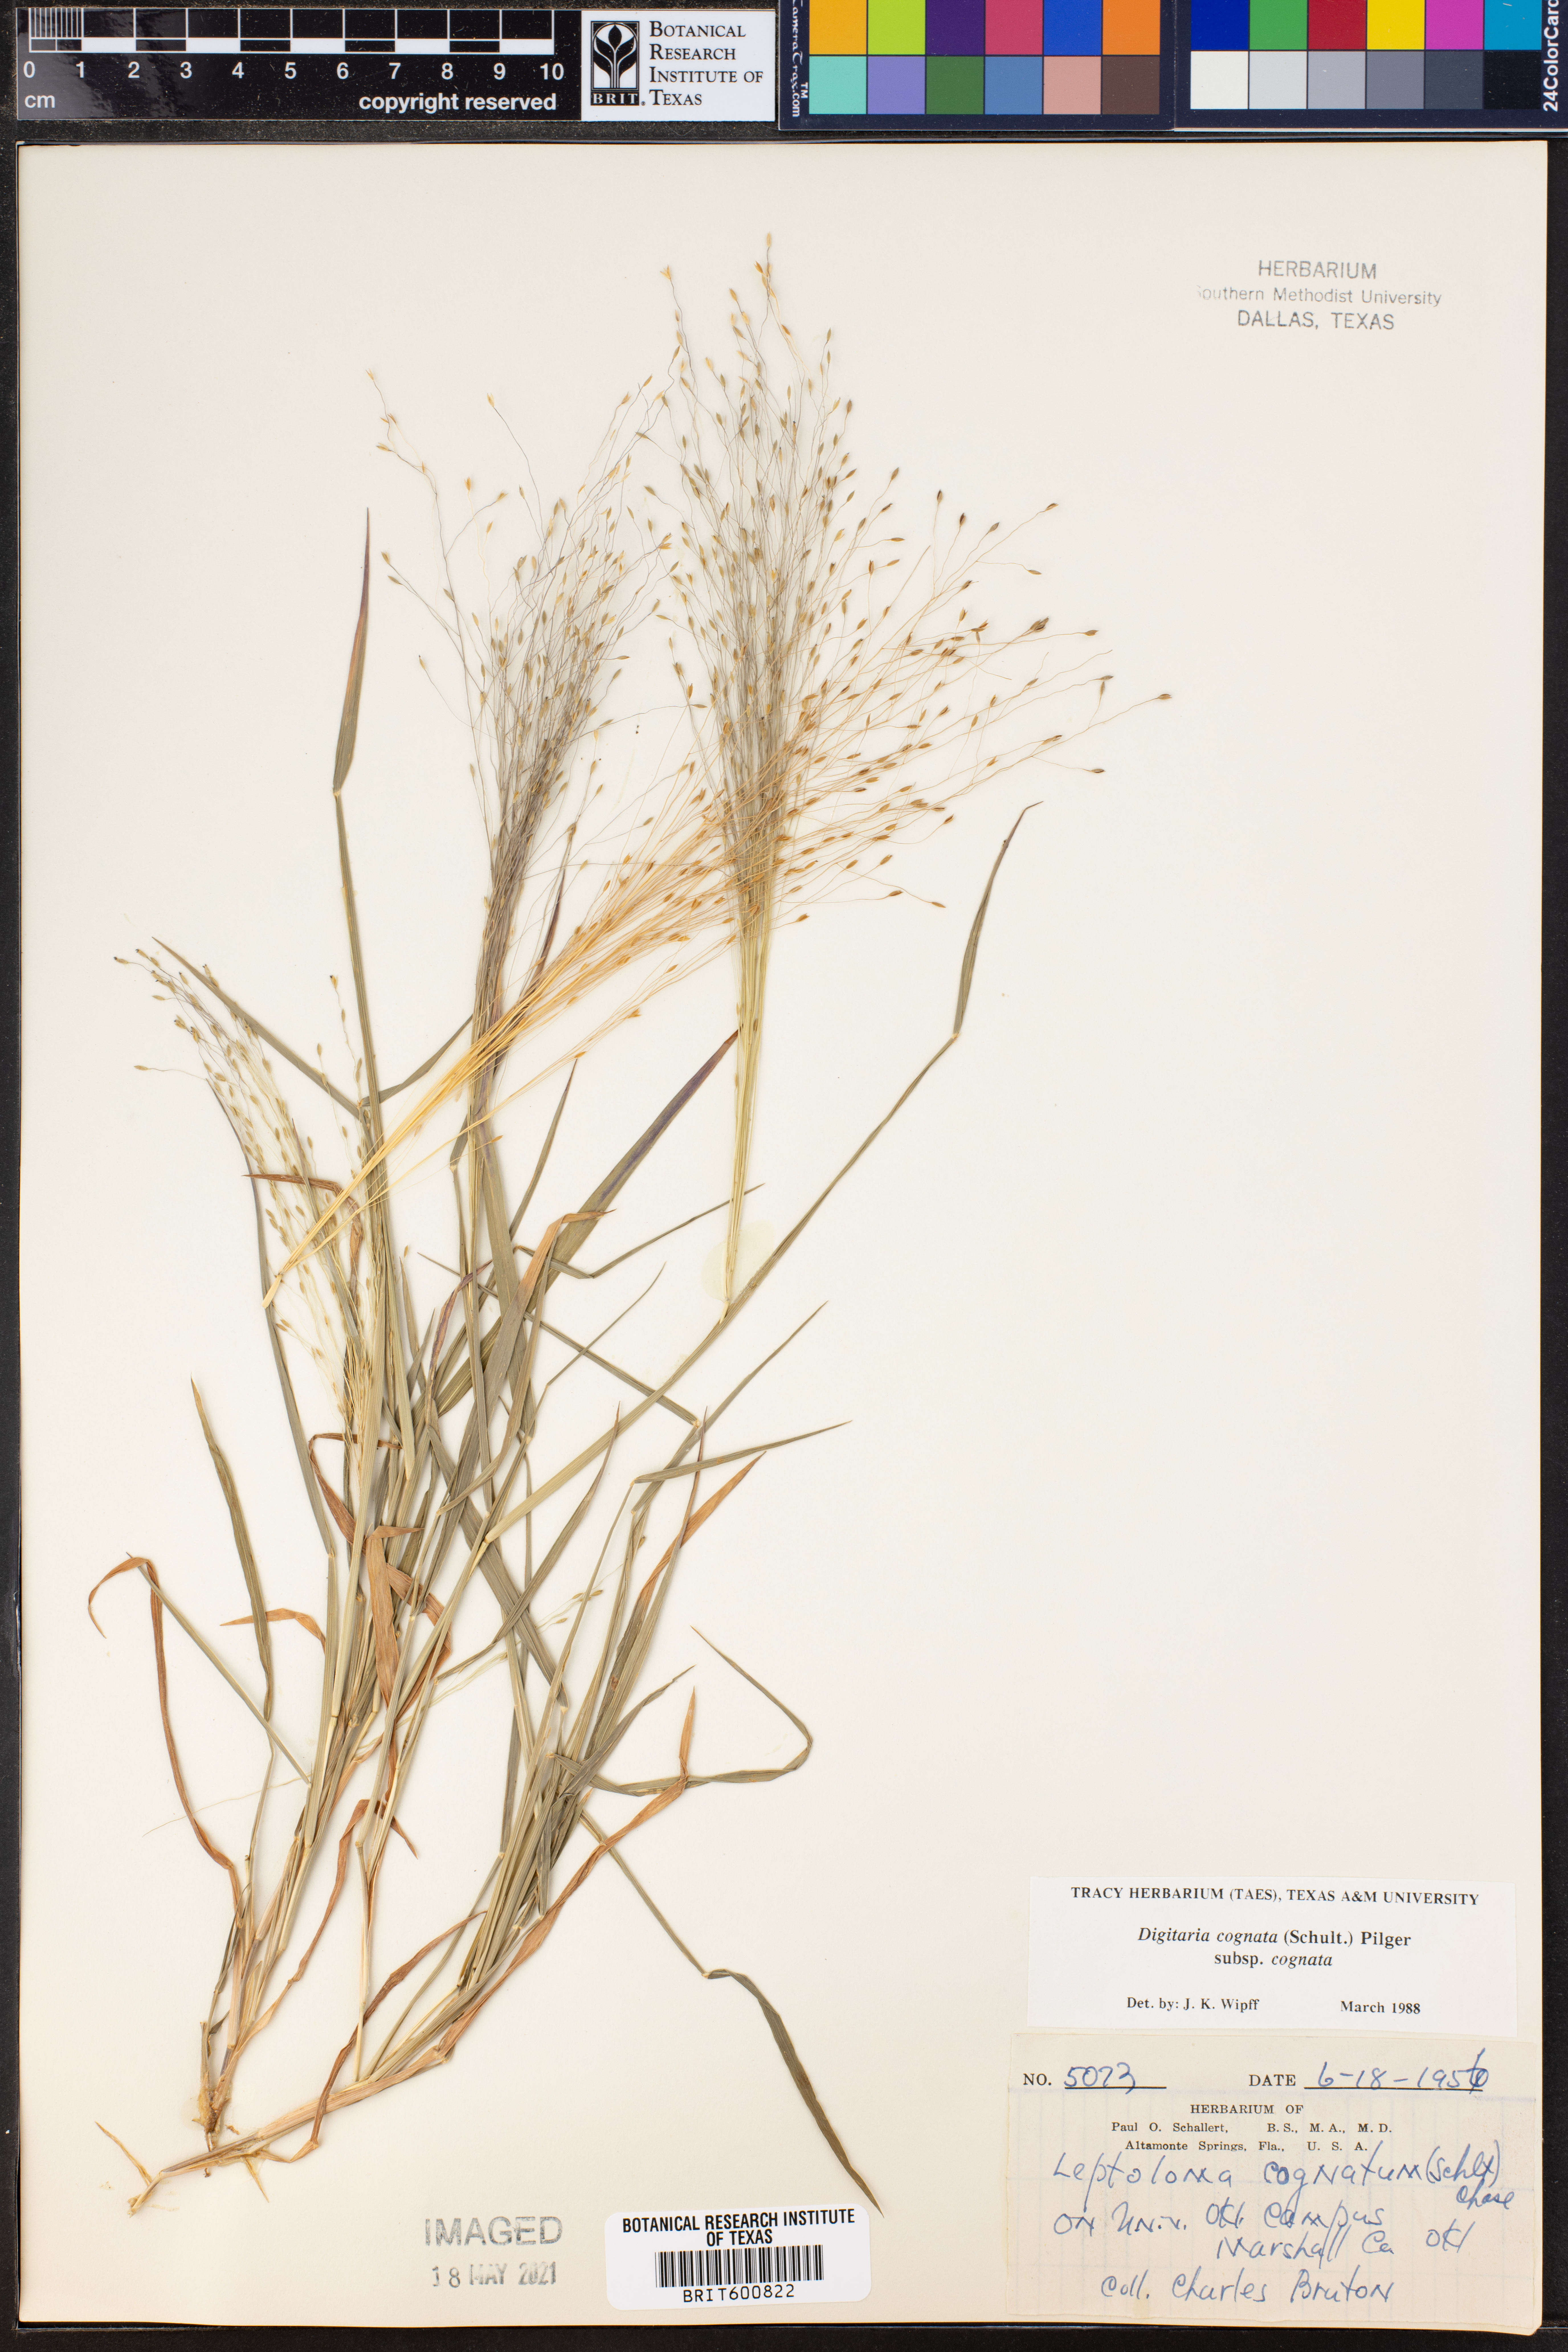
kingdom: Plantae
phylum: Tracheophyta
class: Liliopsida
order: Poales
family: Poaceae
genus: Digitaria
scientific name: Digitaria cognata
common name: Fall witchgrass
